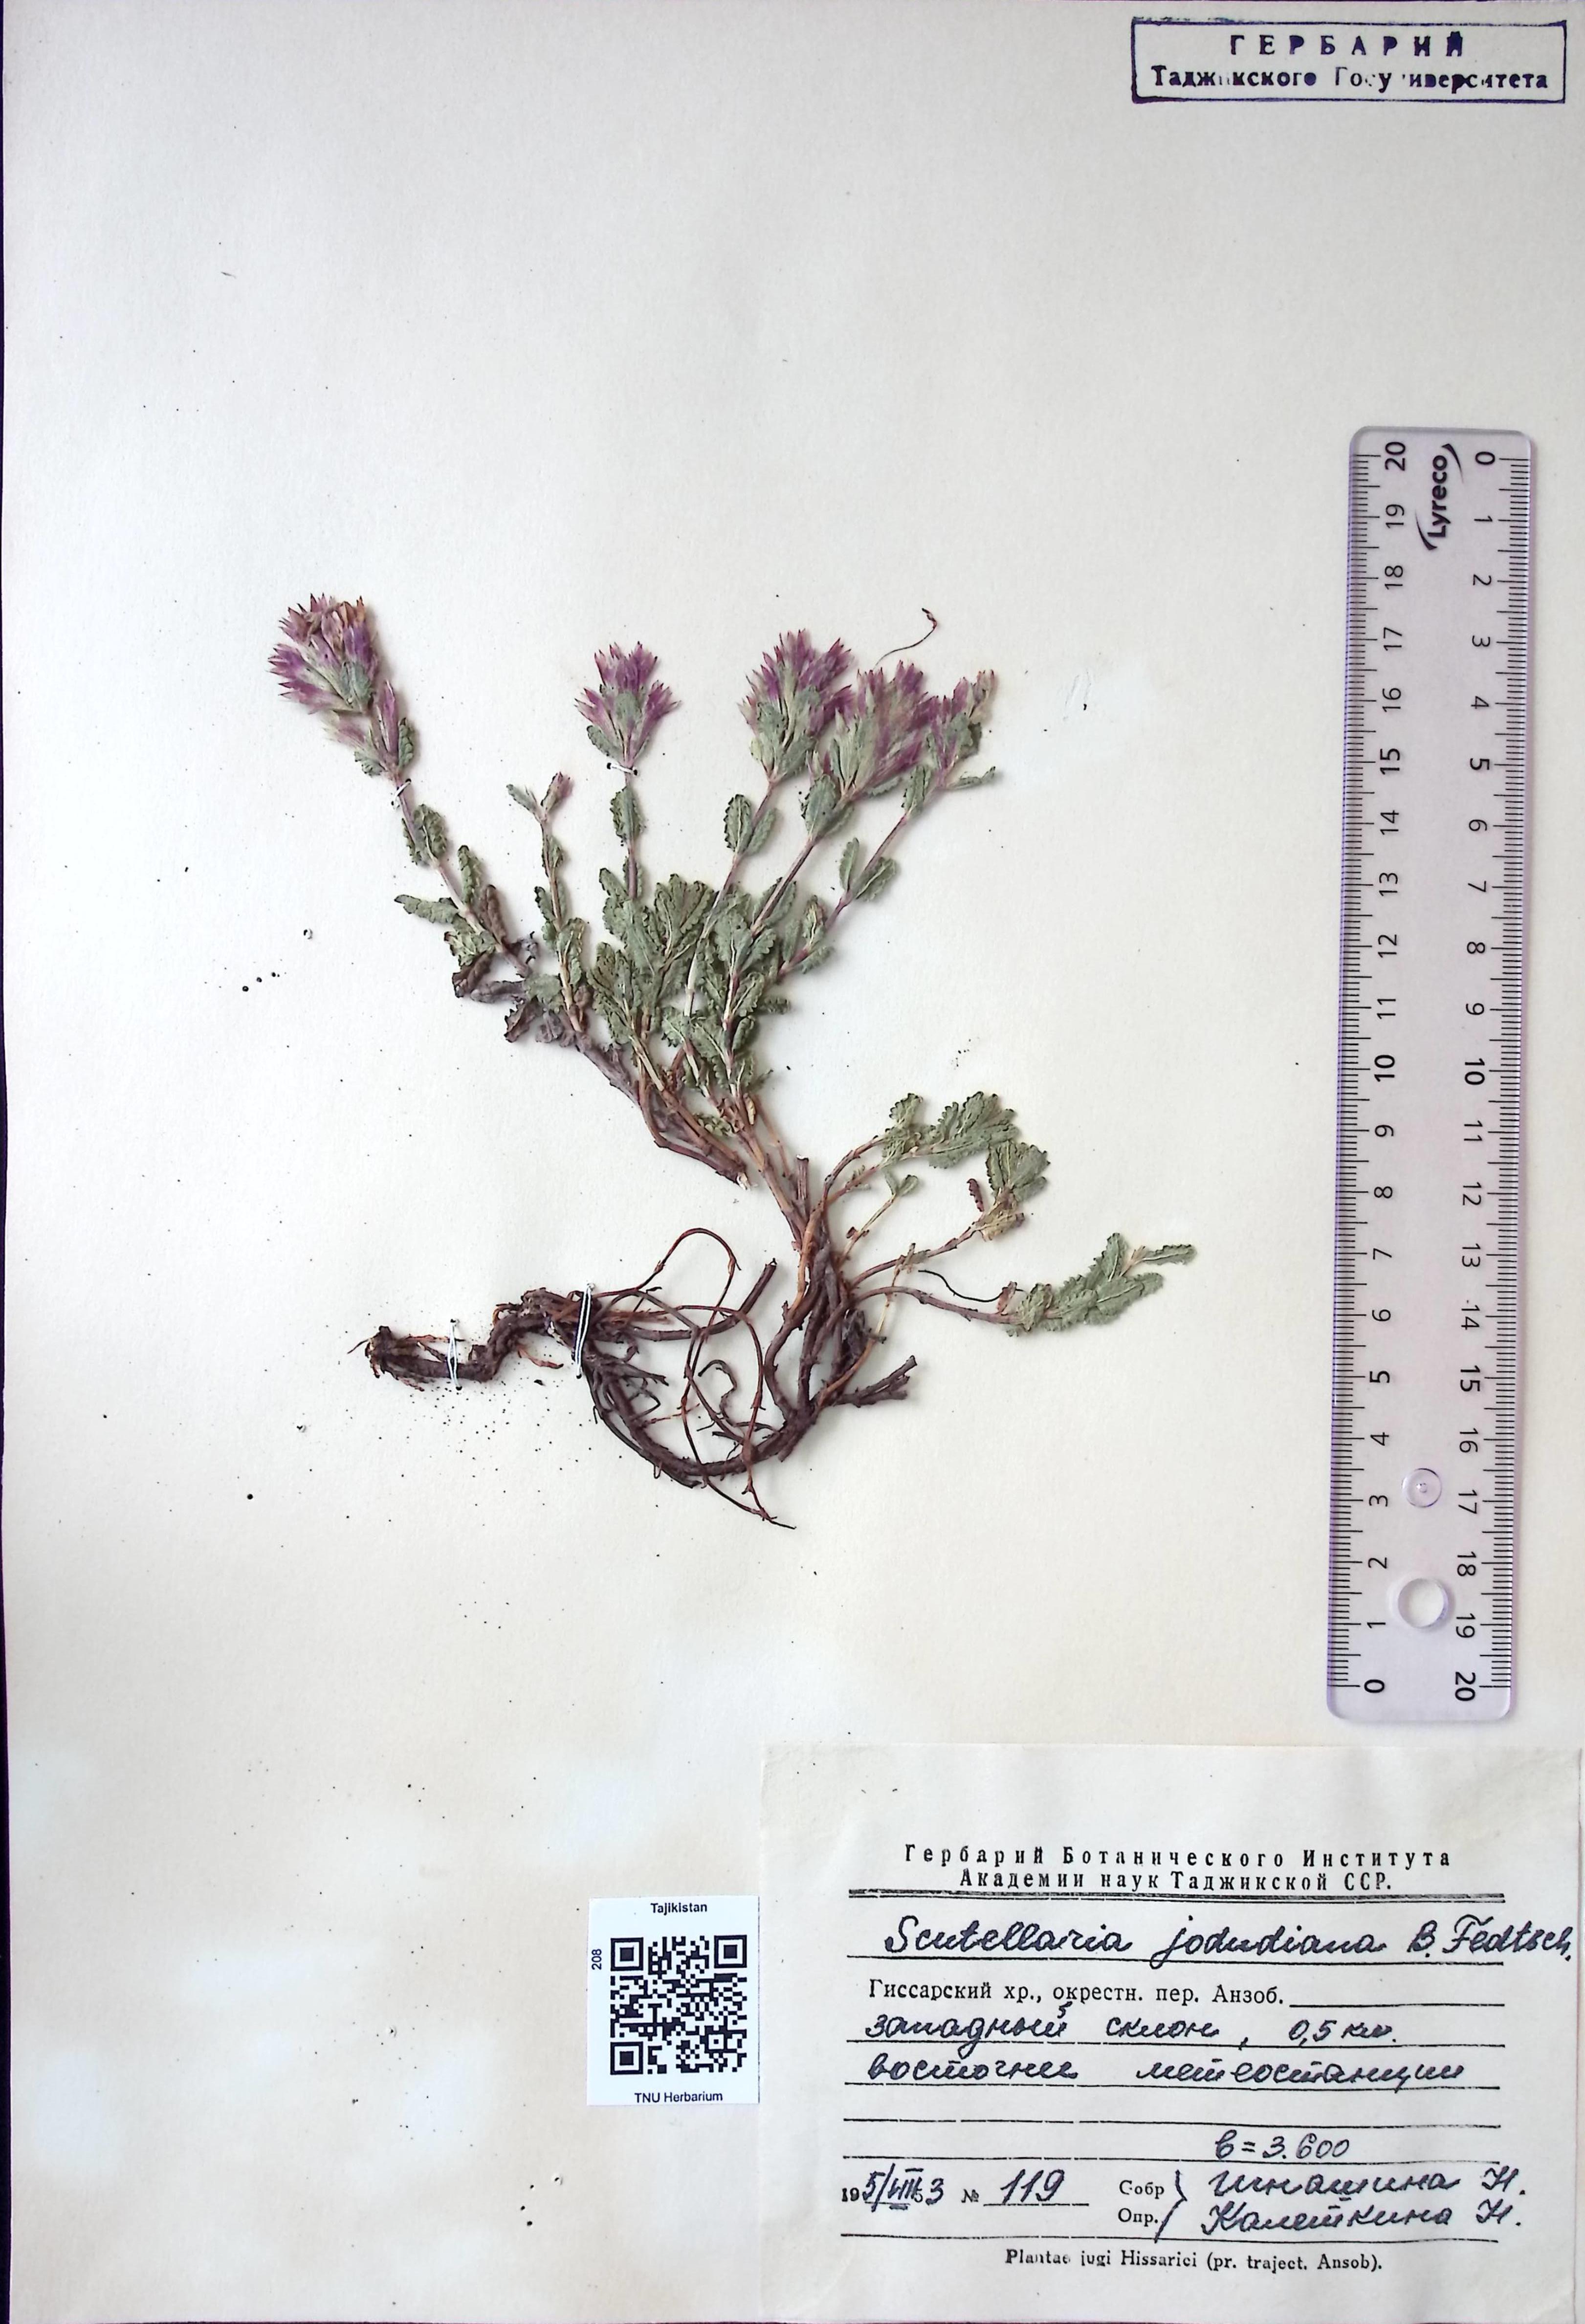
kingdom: Plantae
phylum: Tracheophyta
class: Magnoliopsida
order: Lamiales
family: Lamiaceae
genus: Scutellaria
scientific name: Scutellaria jodudiana
